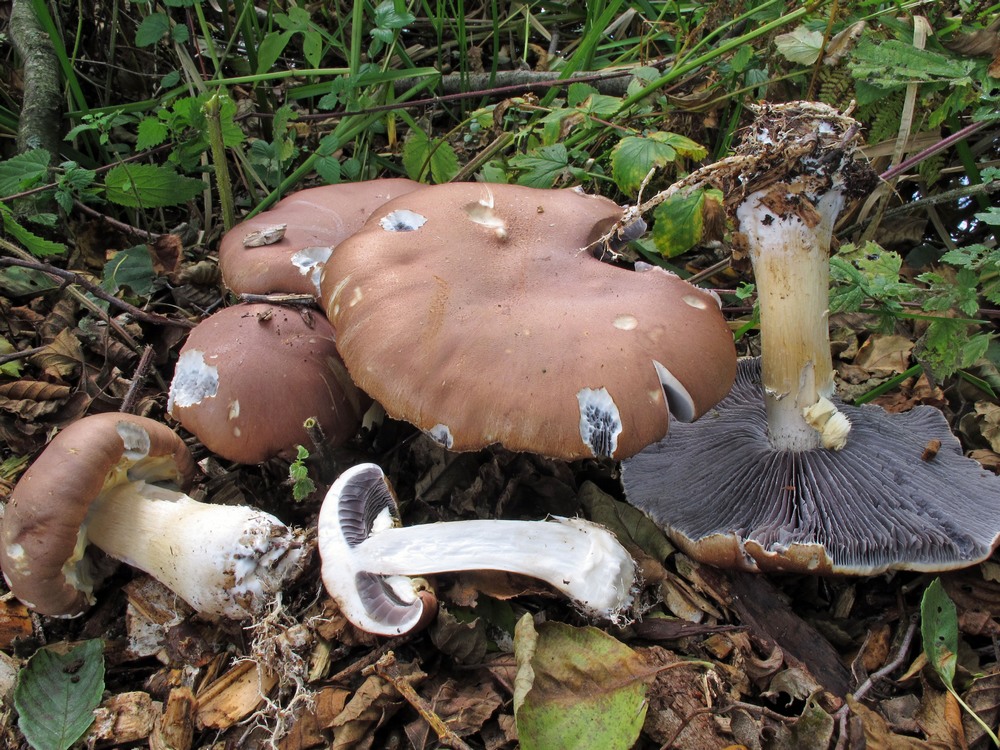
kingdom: Fungi
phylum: Basidiomycota
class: Agaricomycetes
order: Agaricales
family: Strophariaceae
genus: Stropharia
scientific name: Stropharia rugosoannulata
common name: rødbrun bredblad
